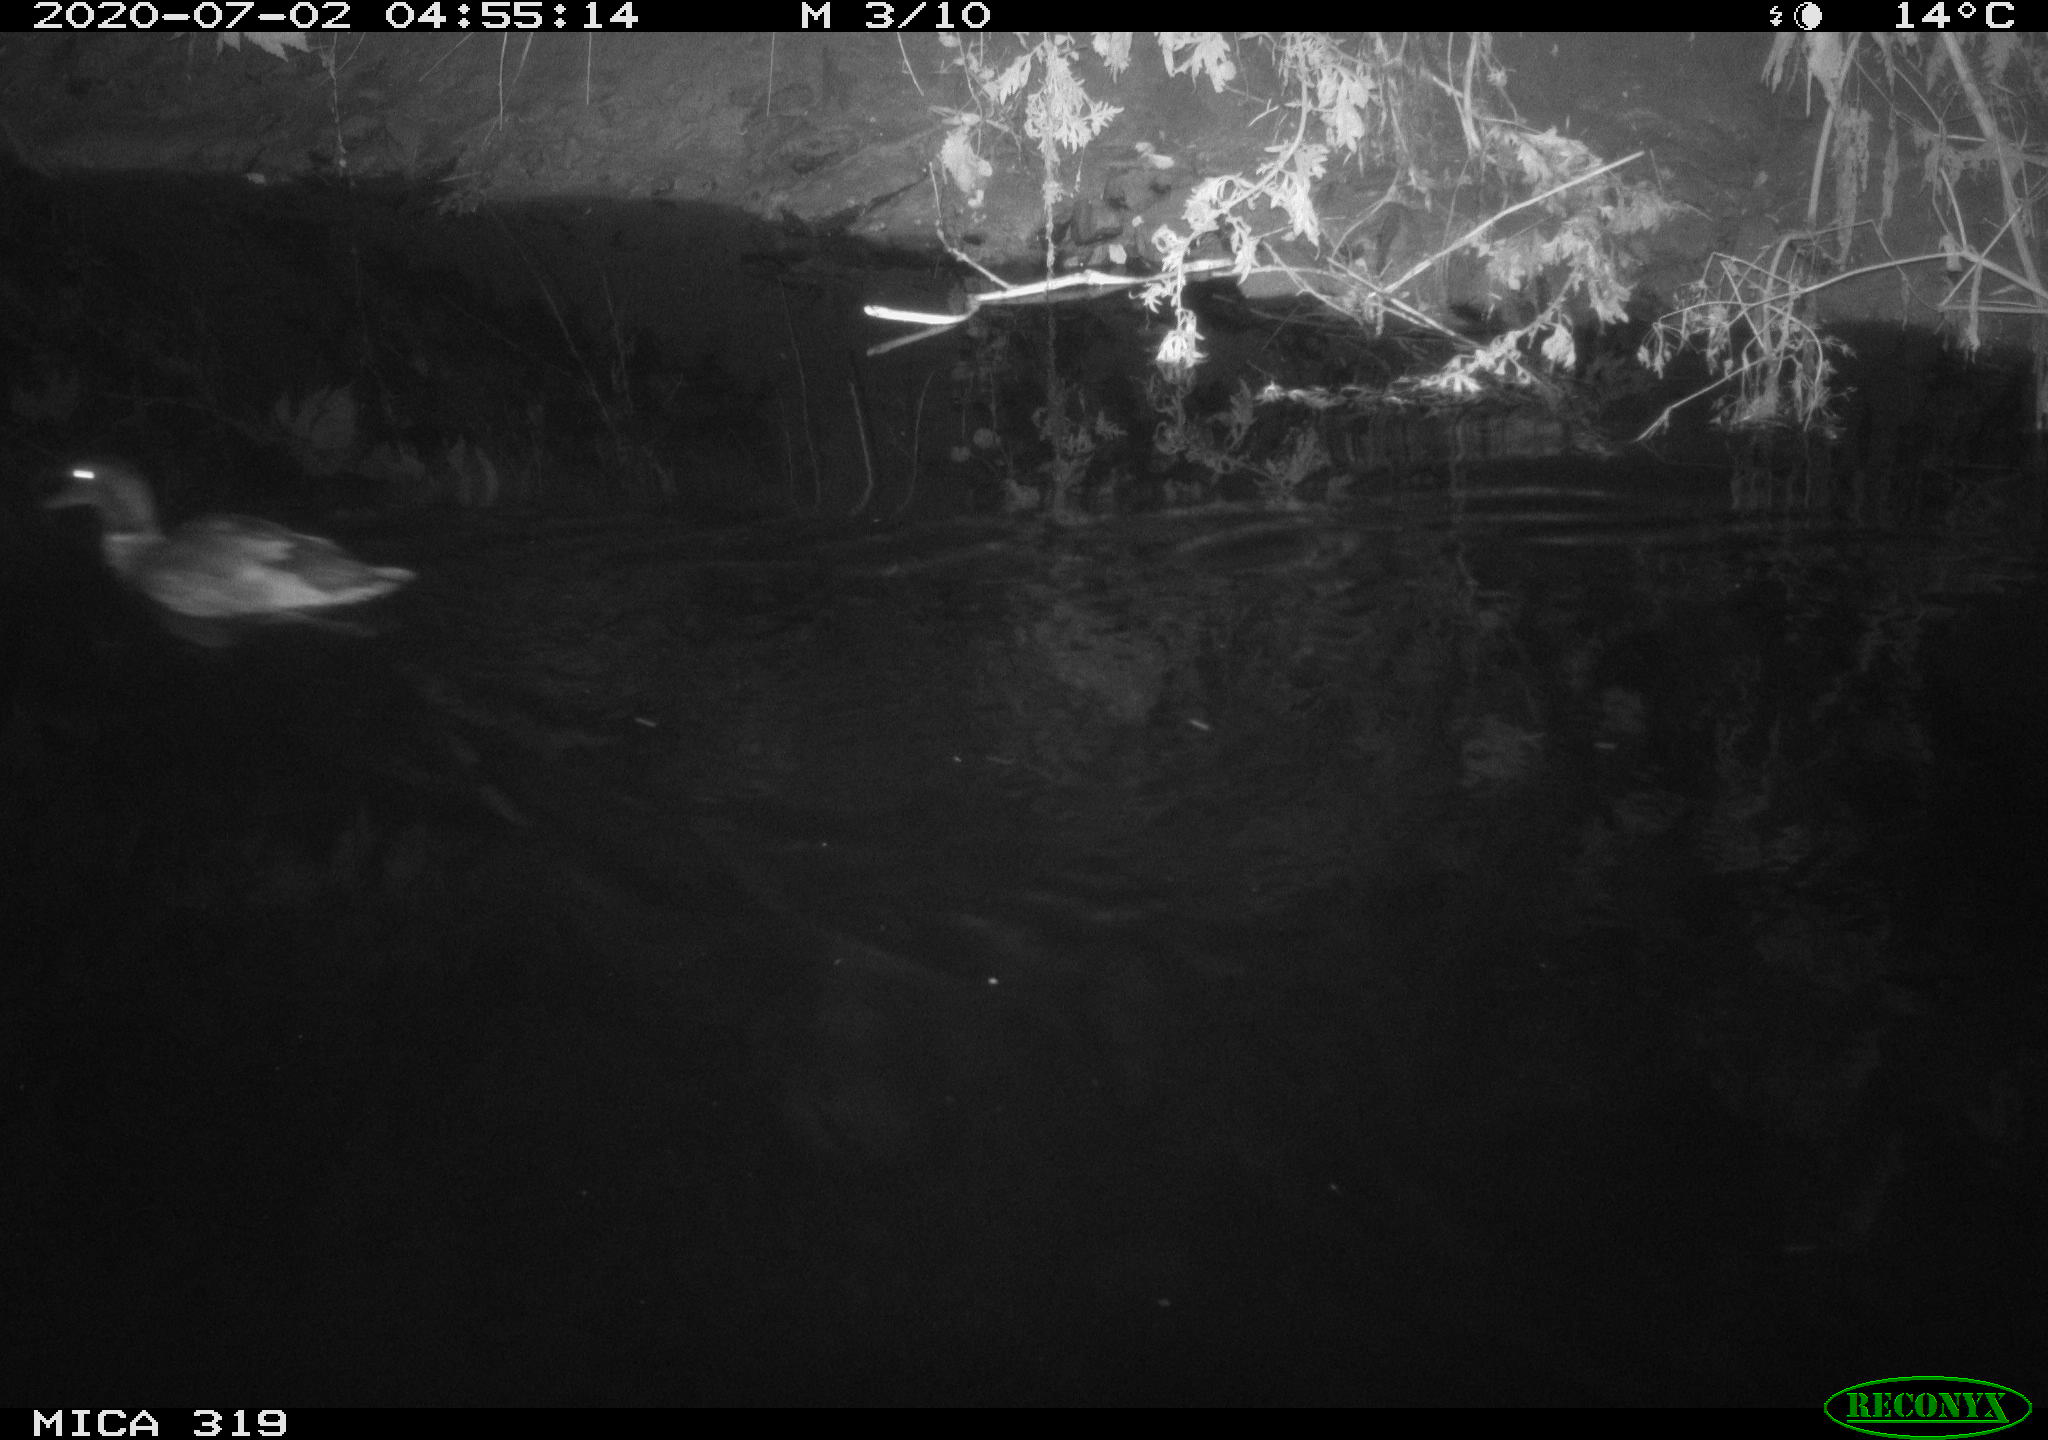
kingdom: Animalia
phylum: Chordata
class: Aves
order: Anseriformes
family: Anatidae
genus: Anas
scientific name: Anas platyrhynchos
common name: Mallard
